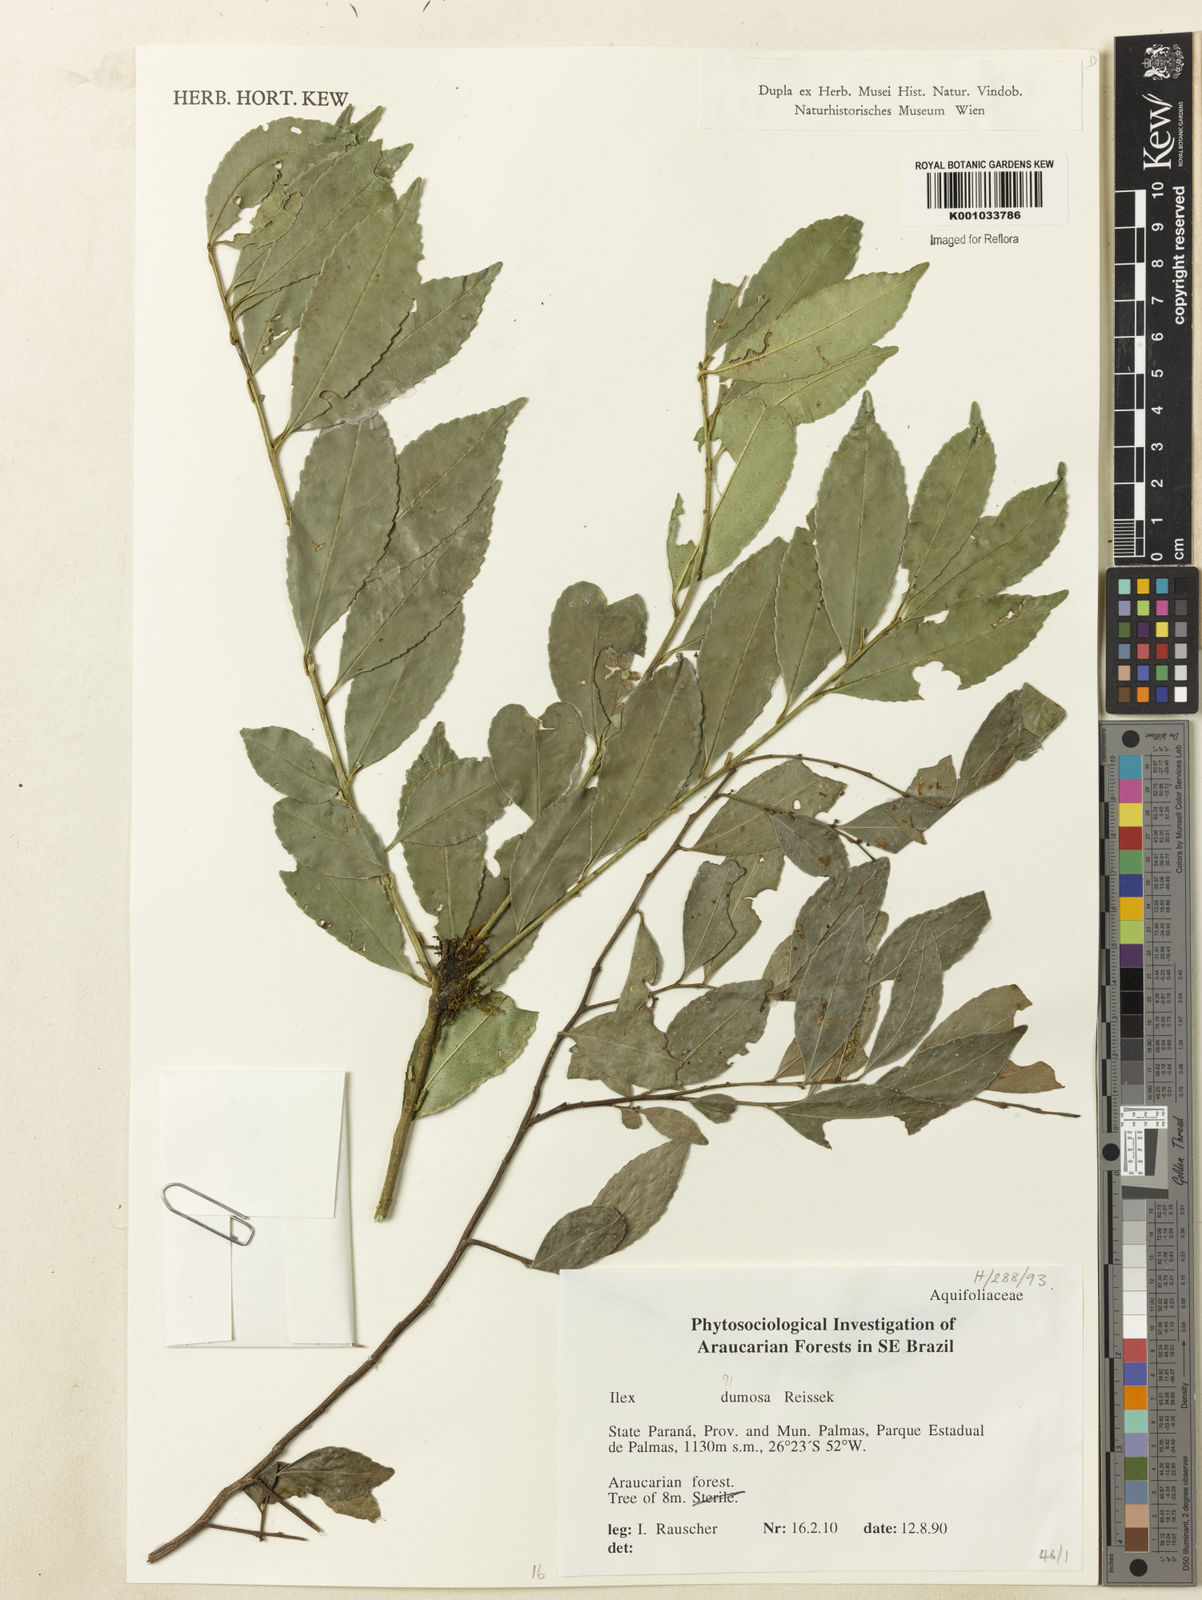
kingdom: Plantae
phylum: Tracheophyta
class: Magnoliopsida
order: Aquifoliales
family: Aquifoliaceae
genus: Ilex
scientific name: Ilex dumosa
